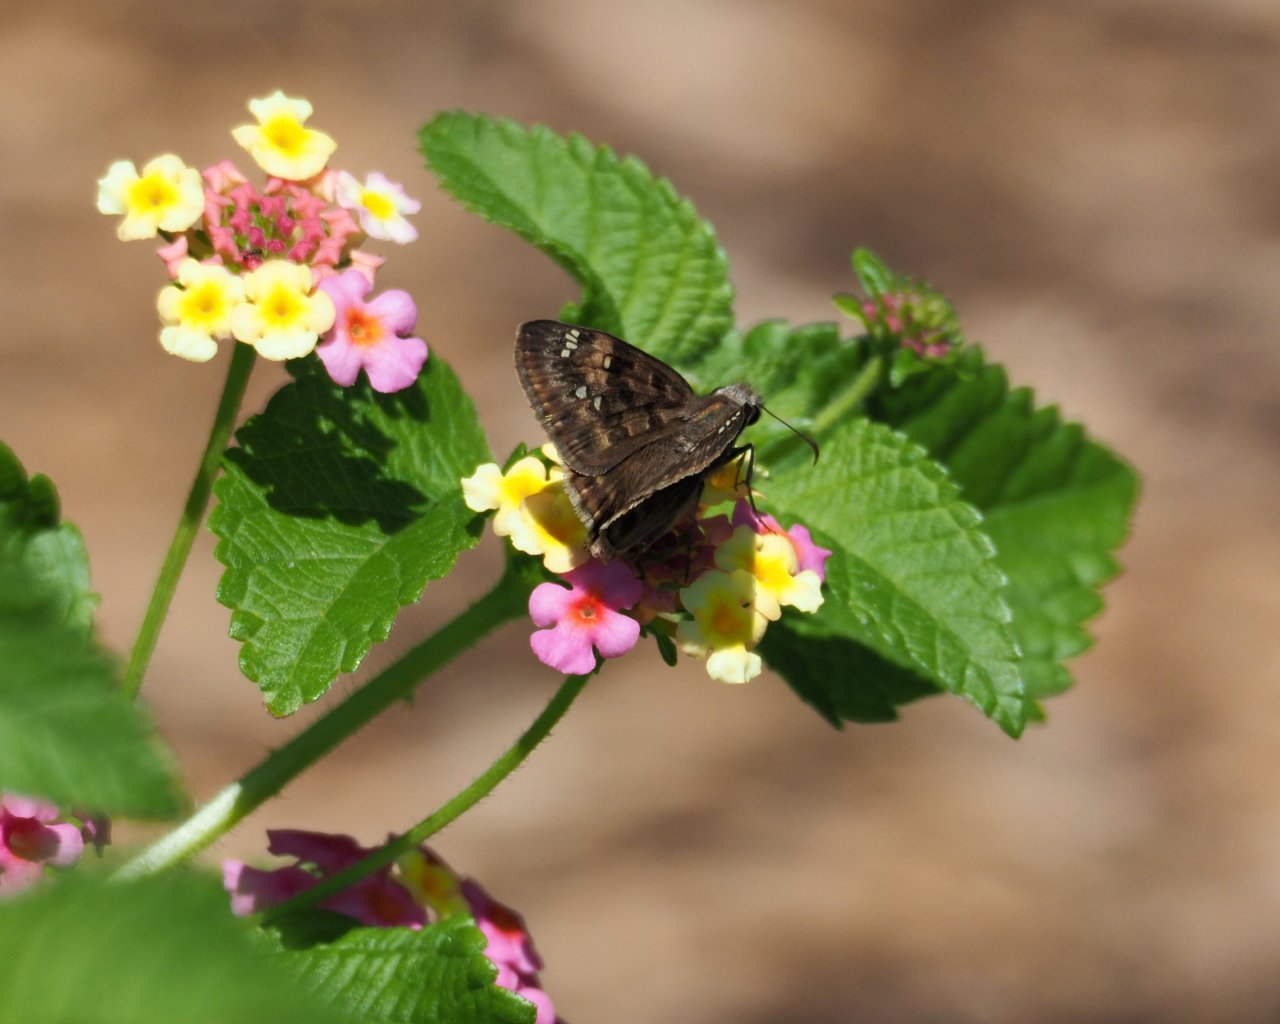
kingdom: Animalia
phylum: Arthropoda
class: Insecta
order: Lepidoptera
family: Hesperiidae
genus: Gesta
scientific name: Gesta
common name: Horace's Duskywing
